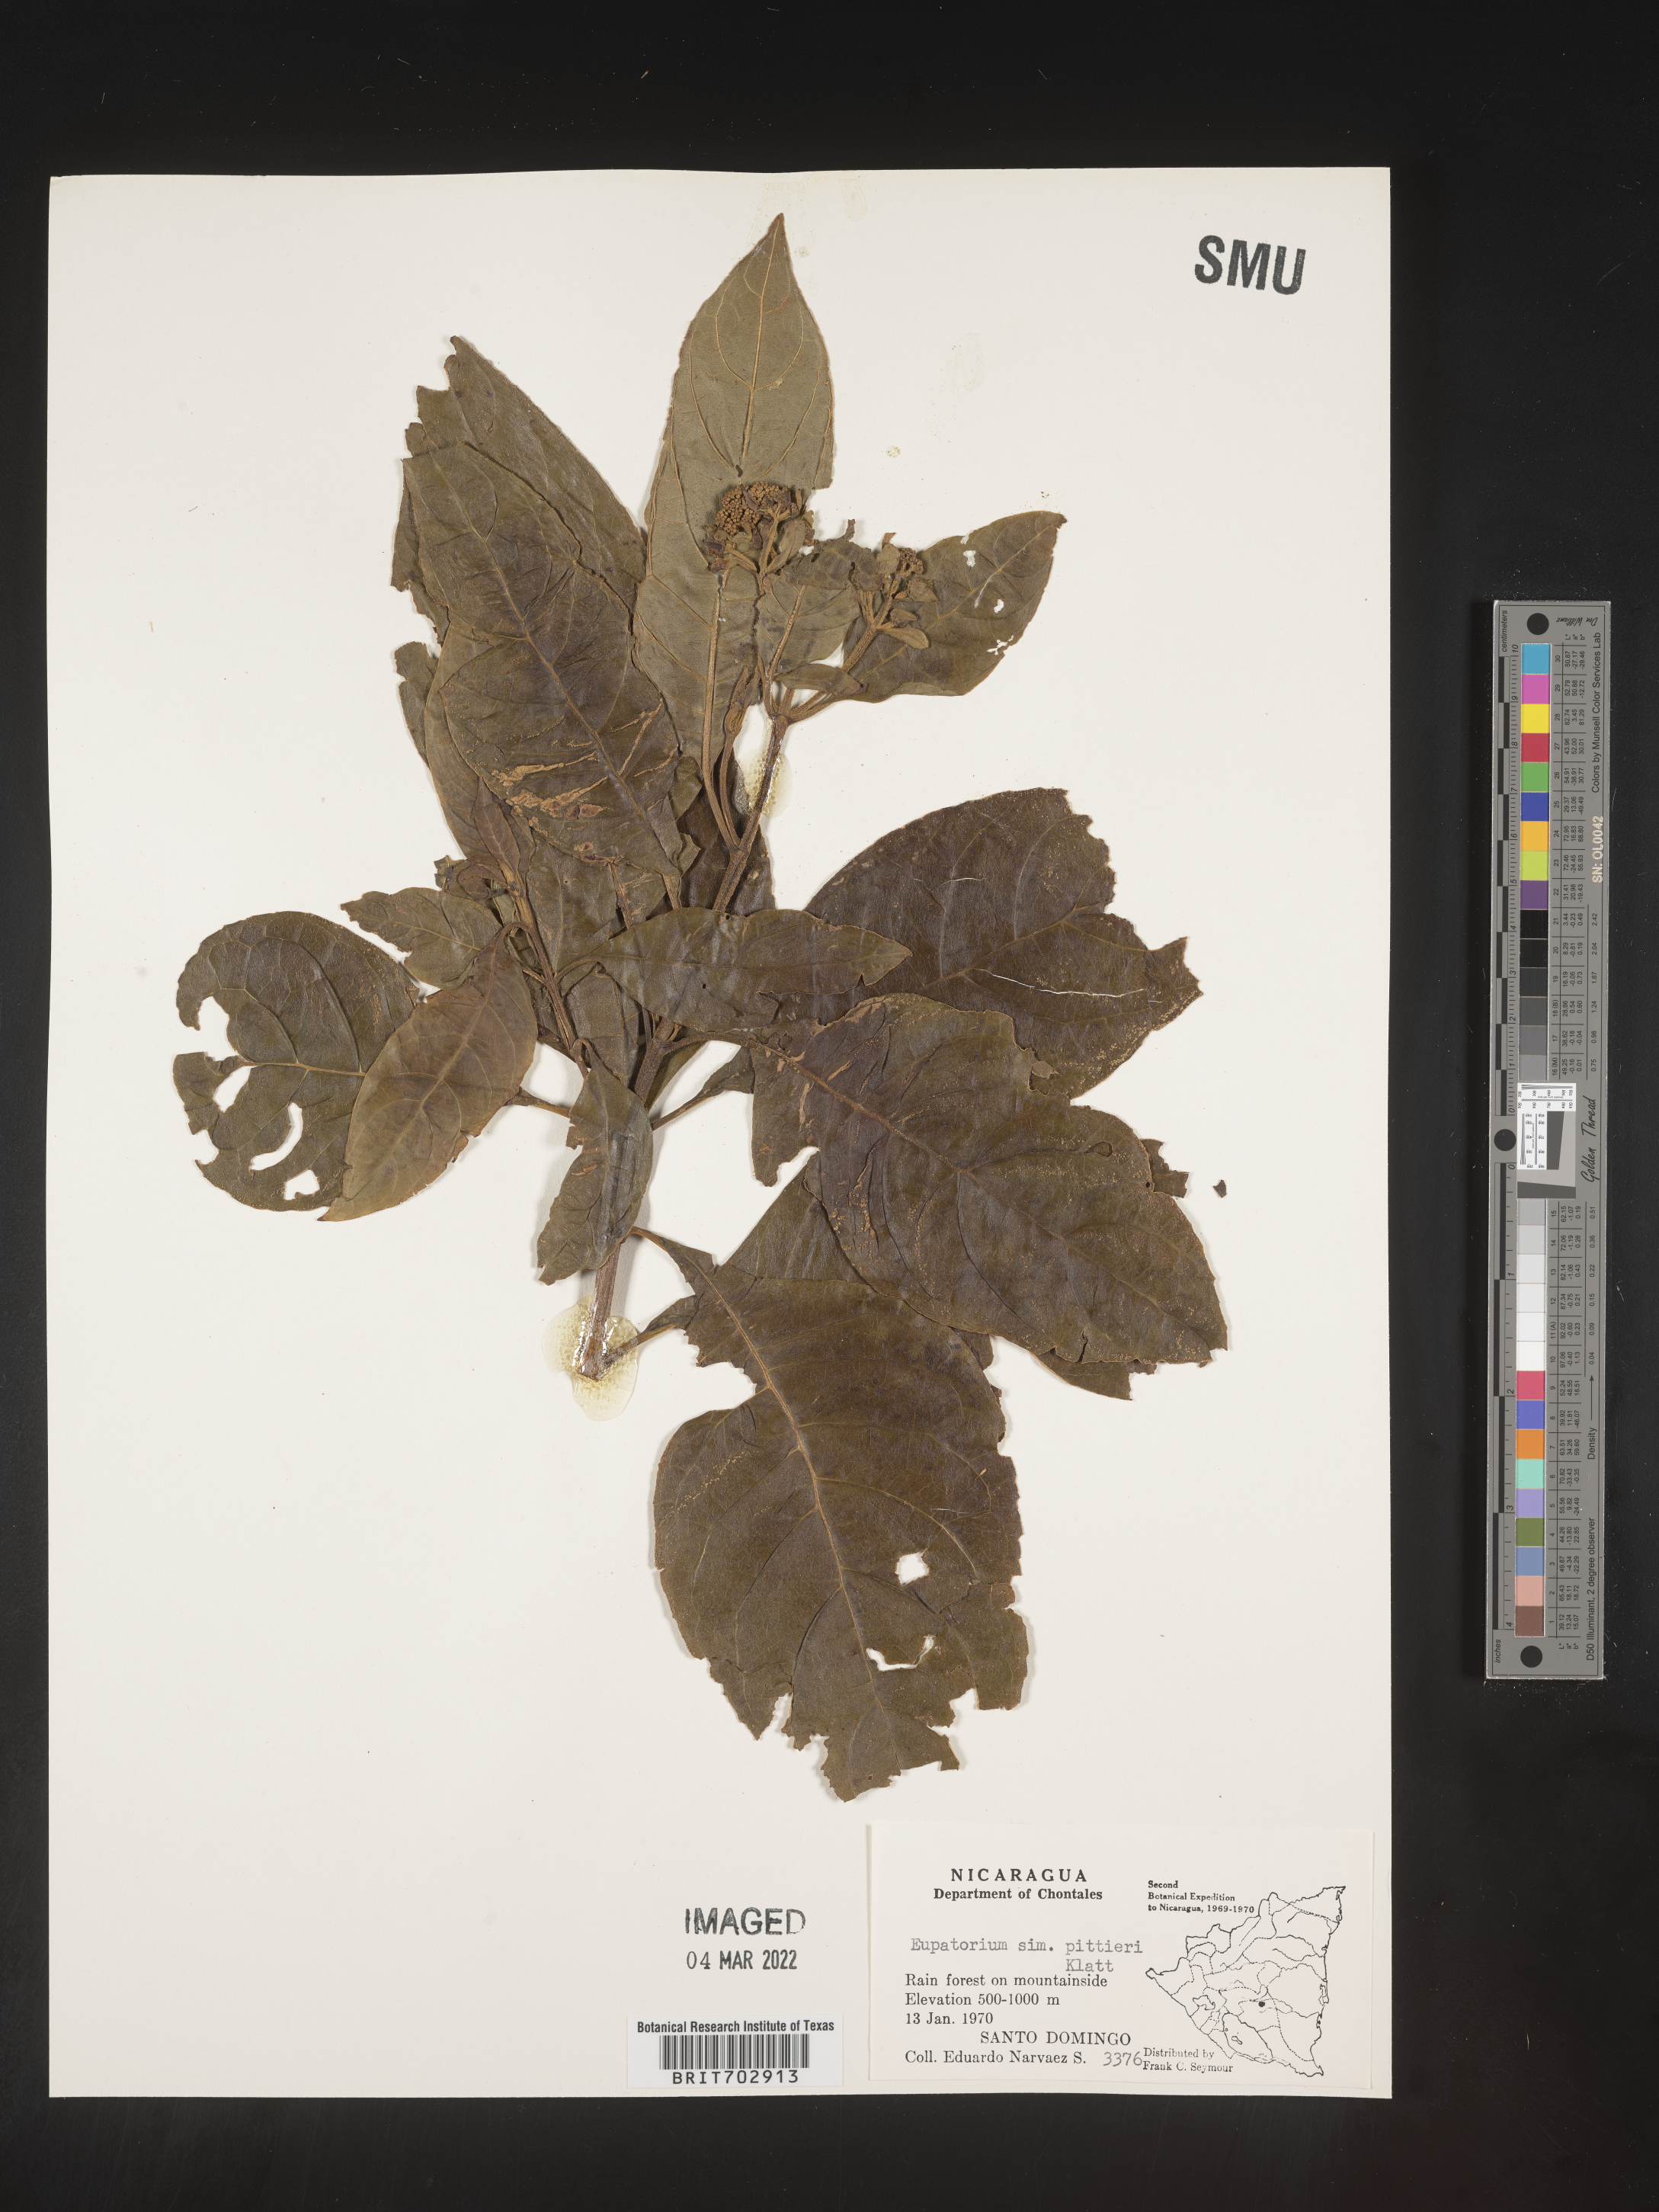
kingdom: Plantae
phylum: Tracheophyta
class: Magnoliopsida
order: Asterales
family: Asteraceae
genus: Eupatorium
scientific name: Eupatorium
